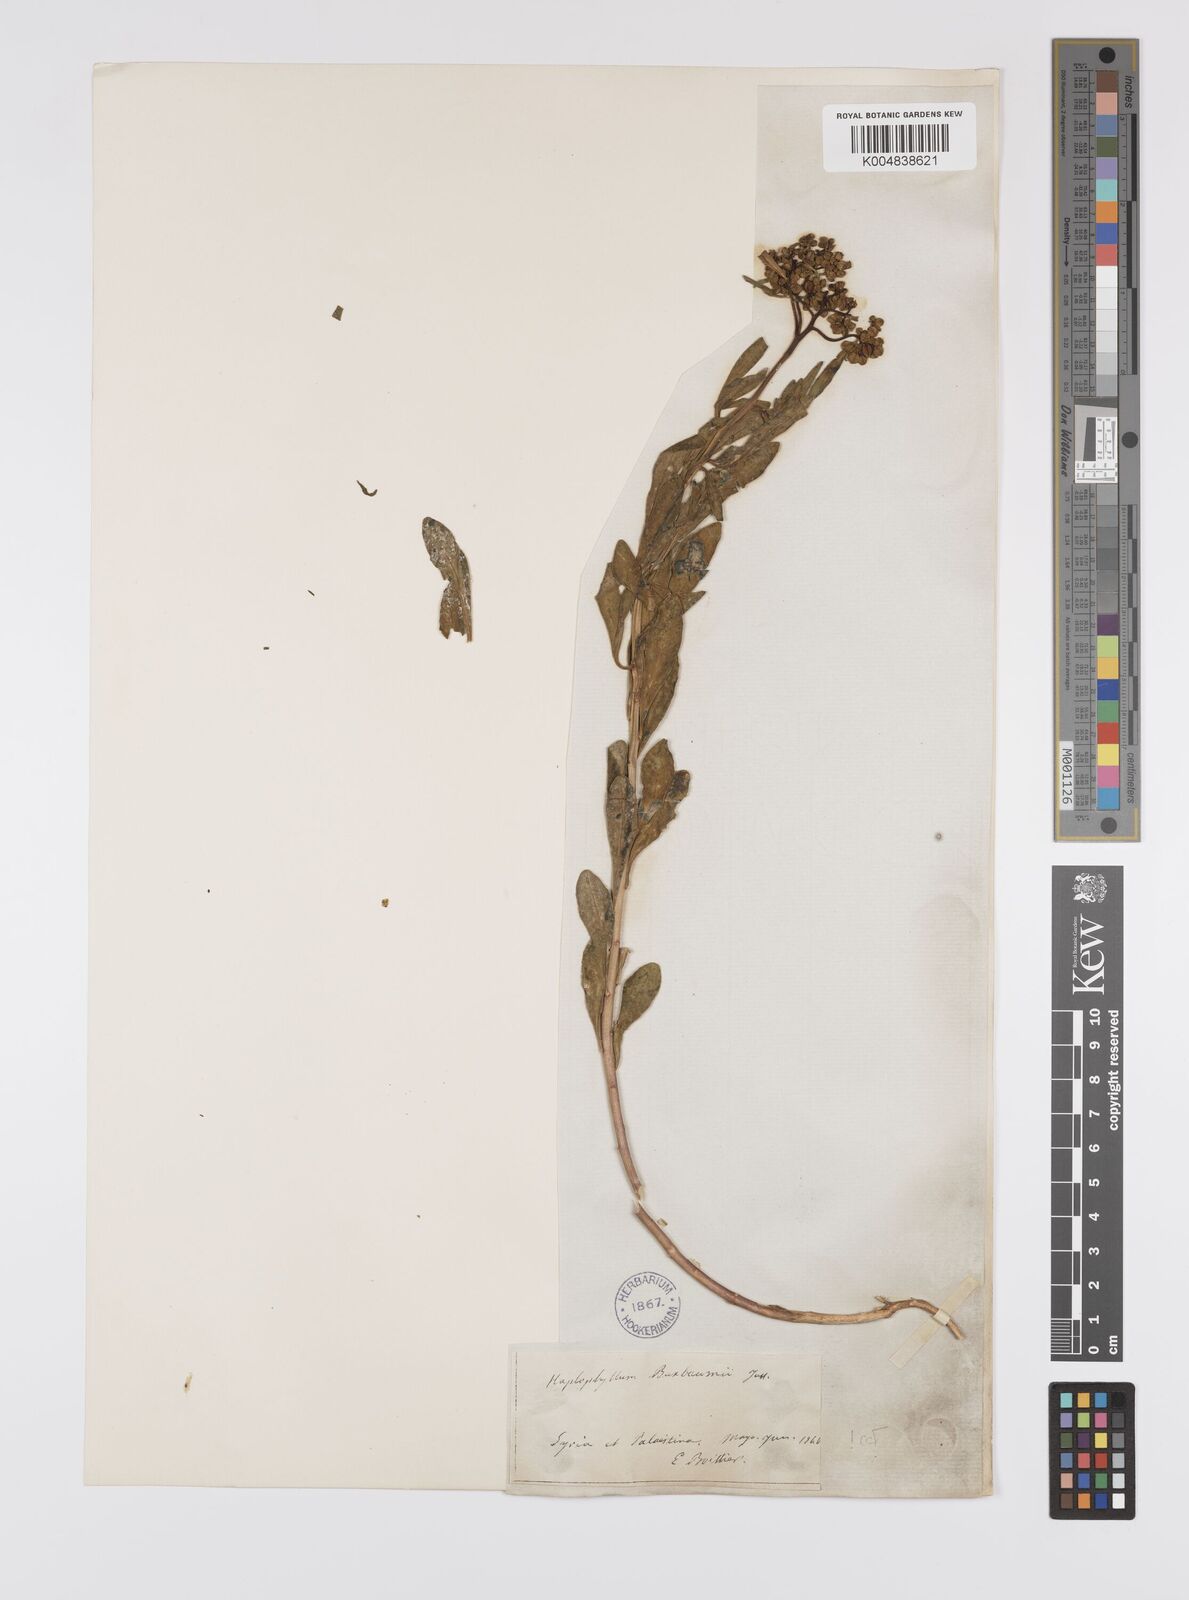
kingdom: Plantae
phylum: Tracheophyta
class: Magnoliopsida
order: Sapindales
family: Rutaceae
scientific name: Rutaceae
